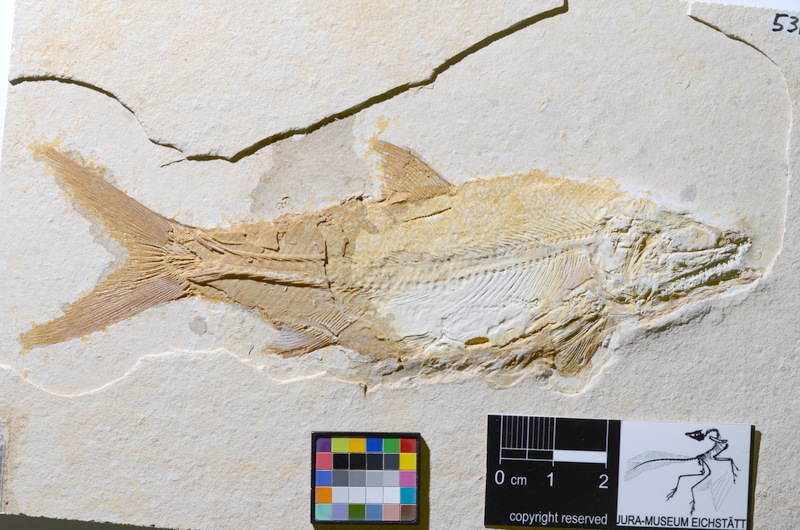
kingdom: Animalia
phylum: Chordata
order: Amiiformes
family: Caturidae
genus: Caturus
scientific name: Caturus furcatus
